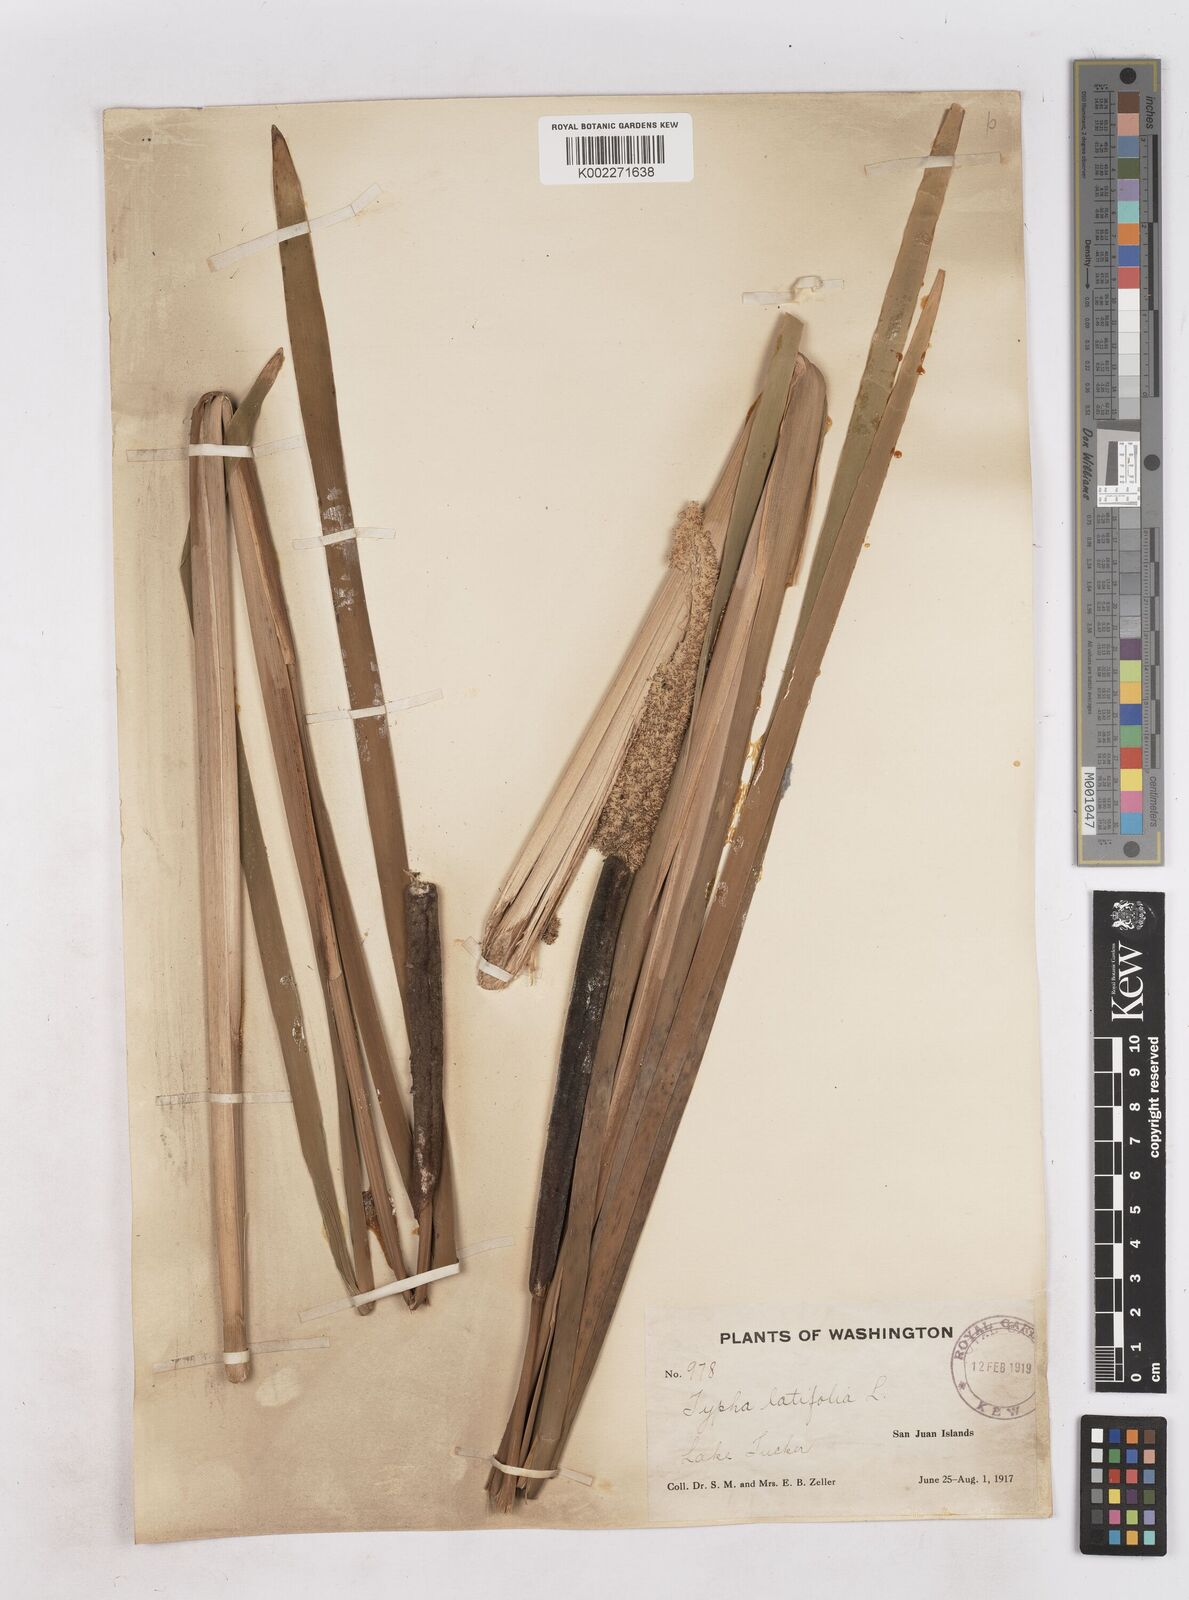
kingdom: Plantae
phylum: Tracheophyta
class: Liliopsida
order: Poales
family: Typhaceae
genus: Typha
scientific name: Typha latifolia
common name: Broadleaf cattail
